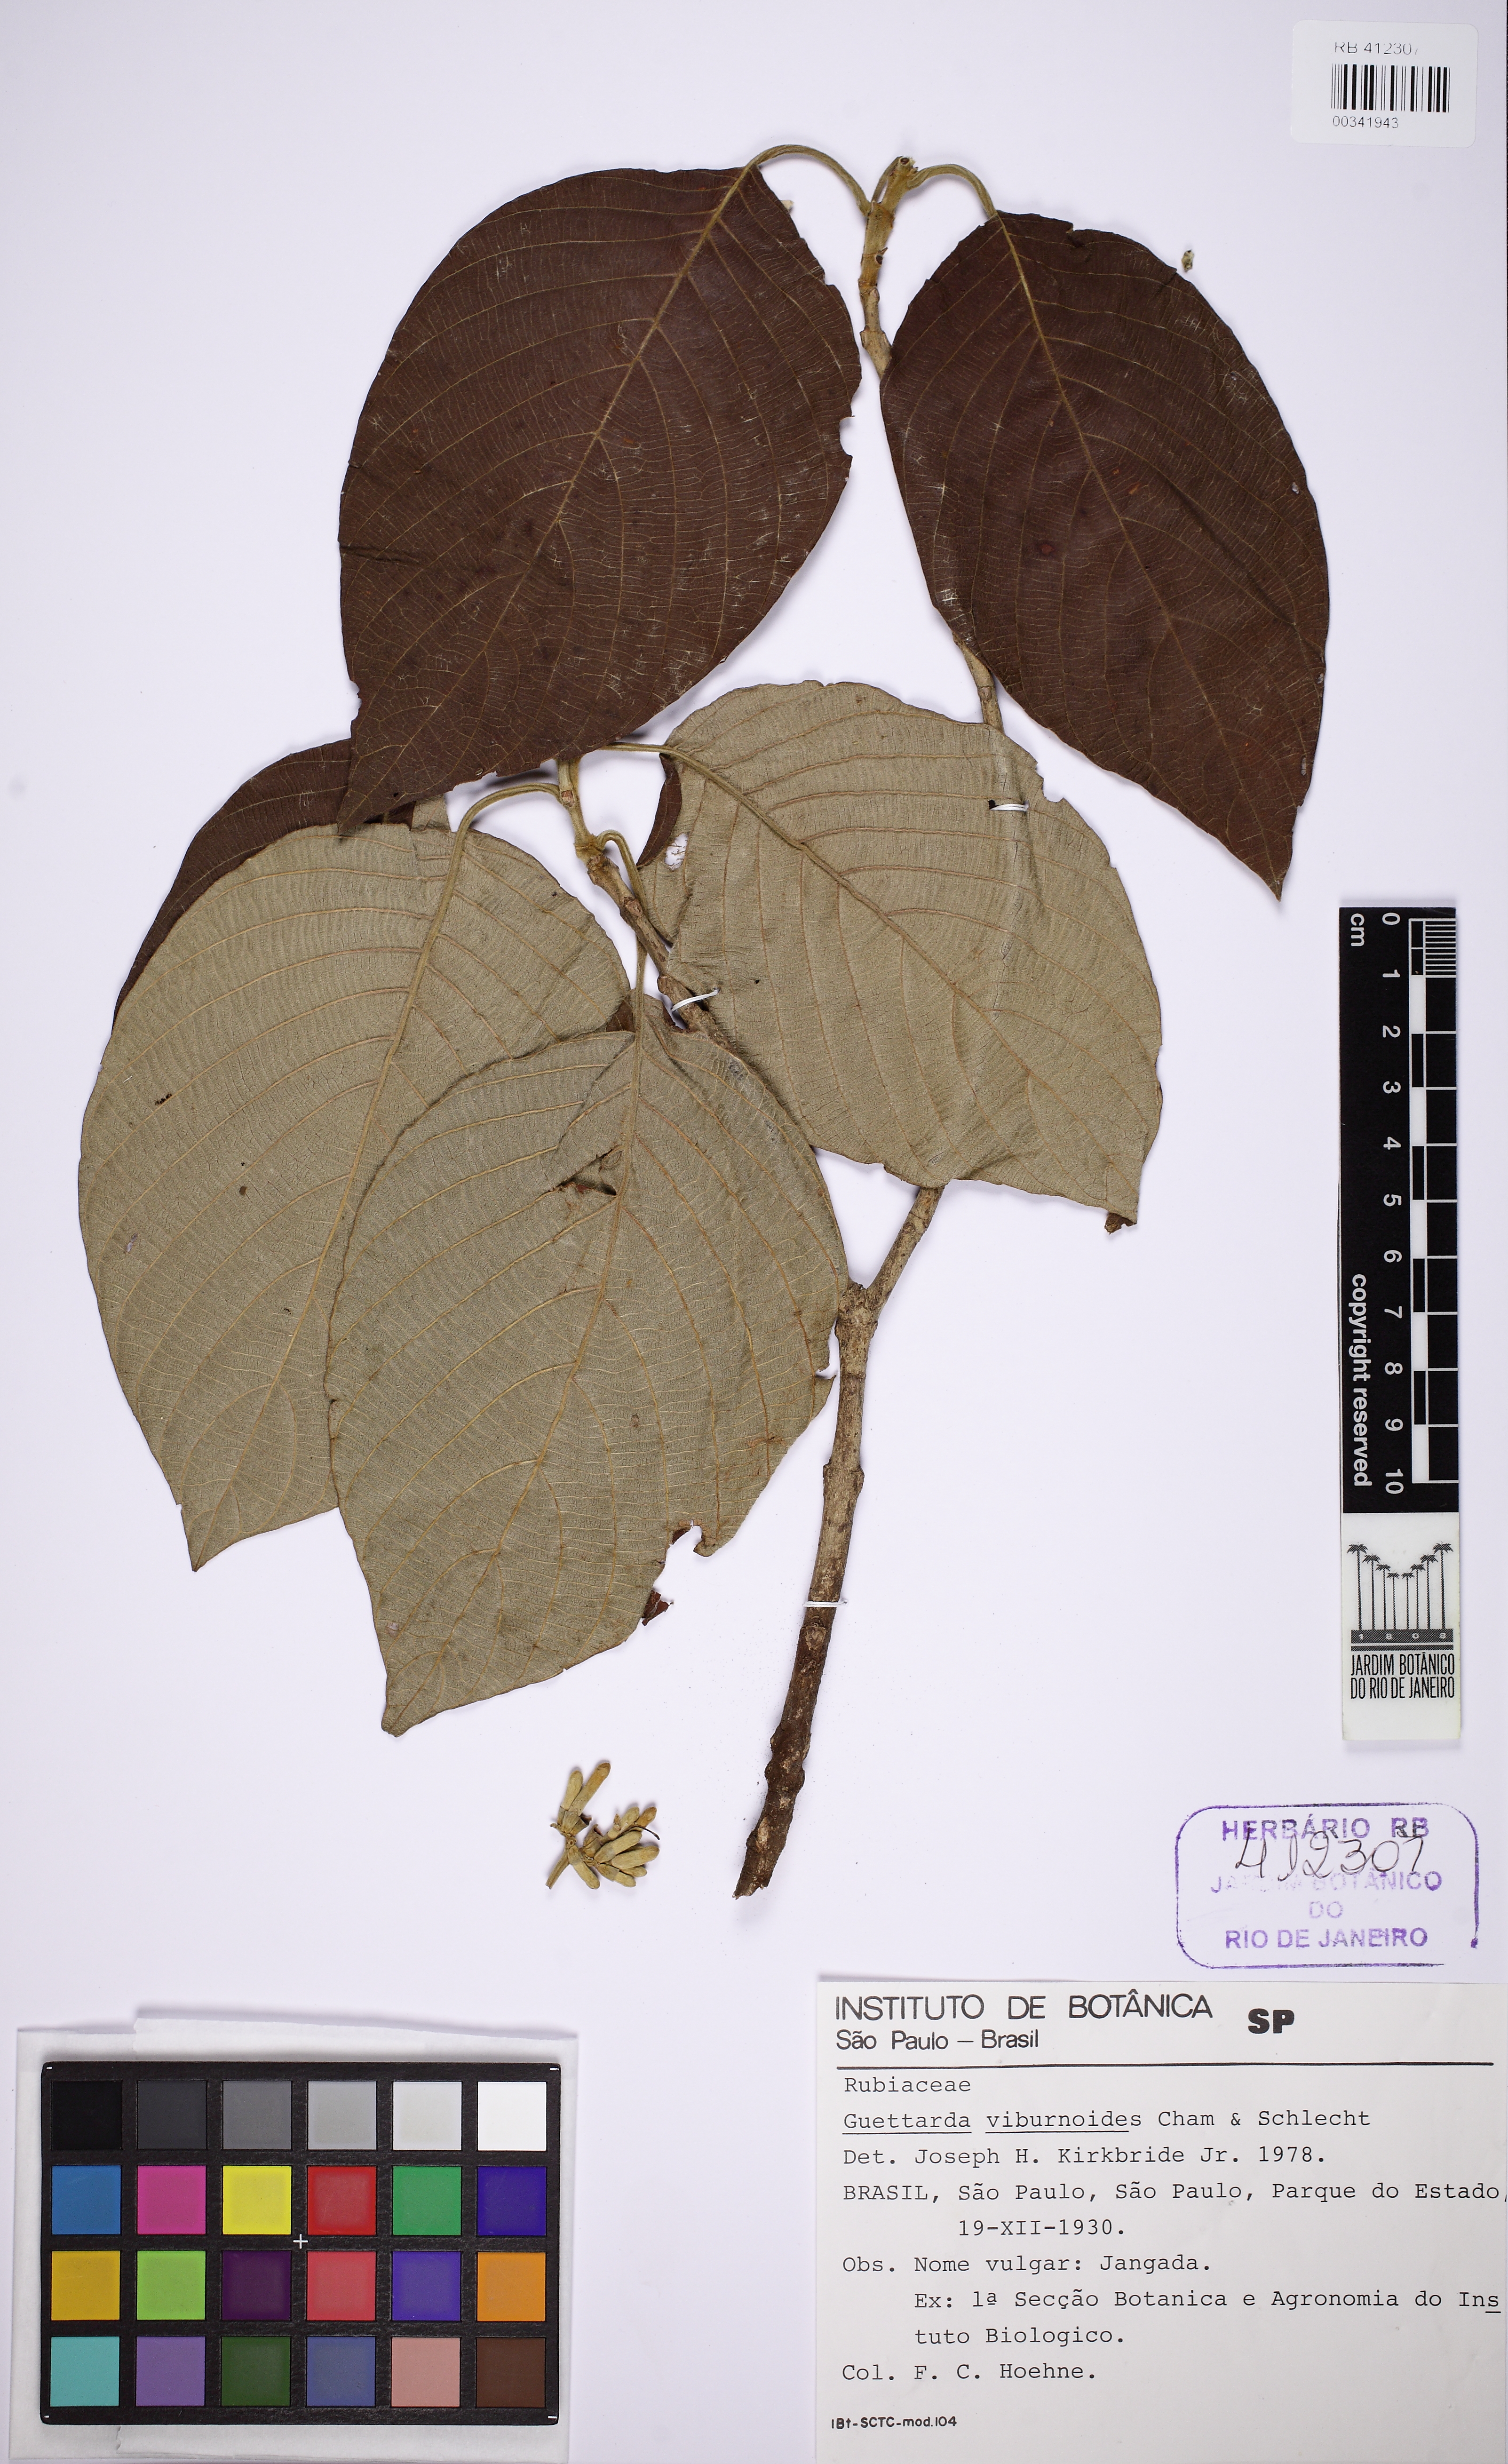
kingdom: Plantae
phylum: Tracheophyta
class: Magnoliopsida
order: Gentianales
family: Rubiaceae
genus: Guettarda
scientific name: Guettarda viburnoides
